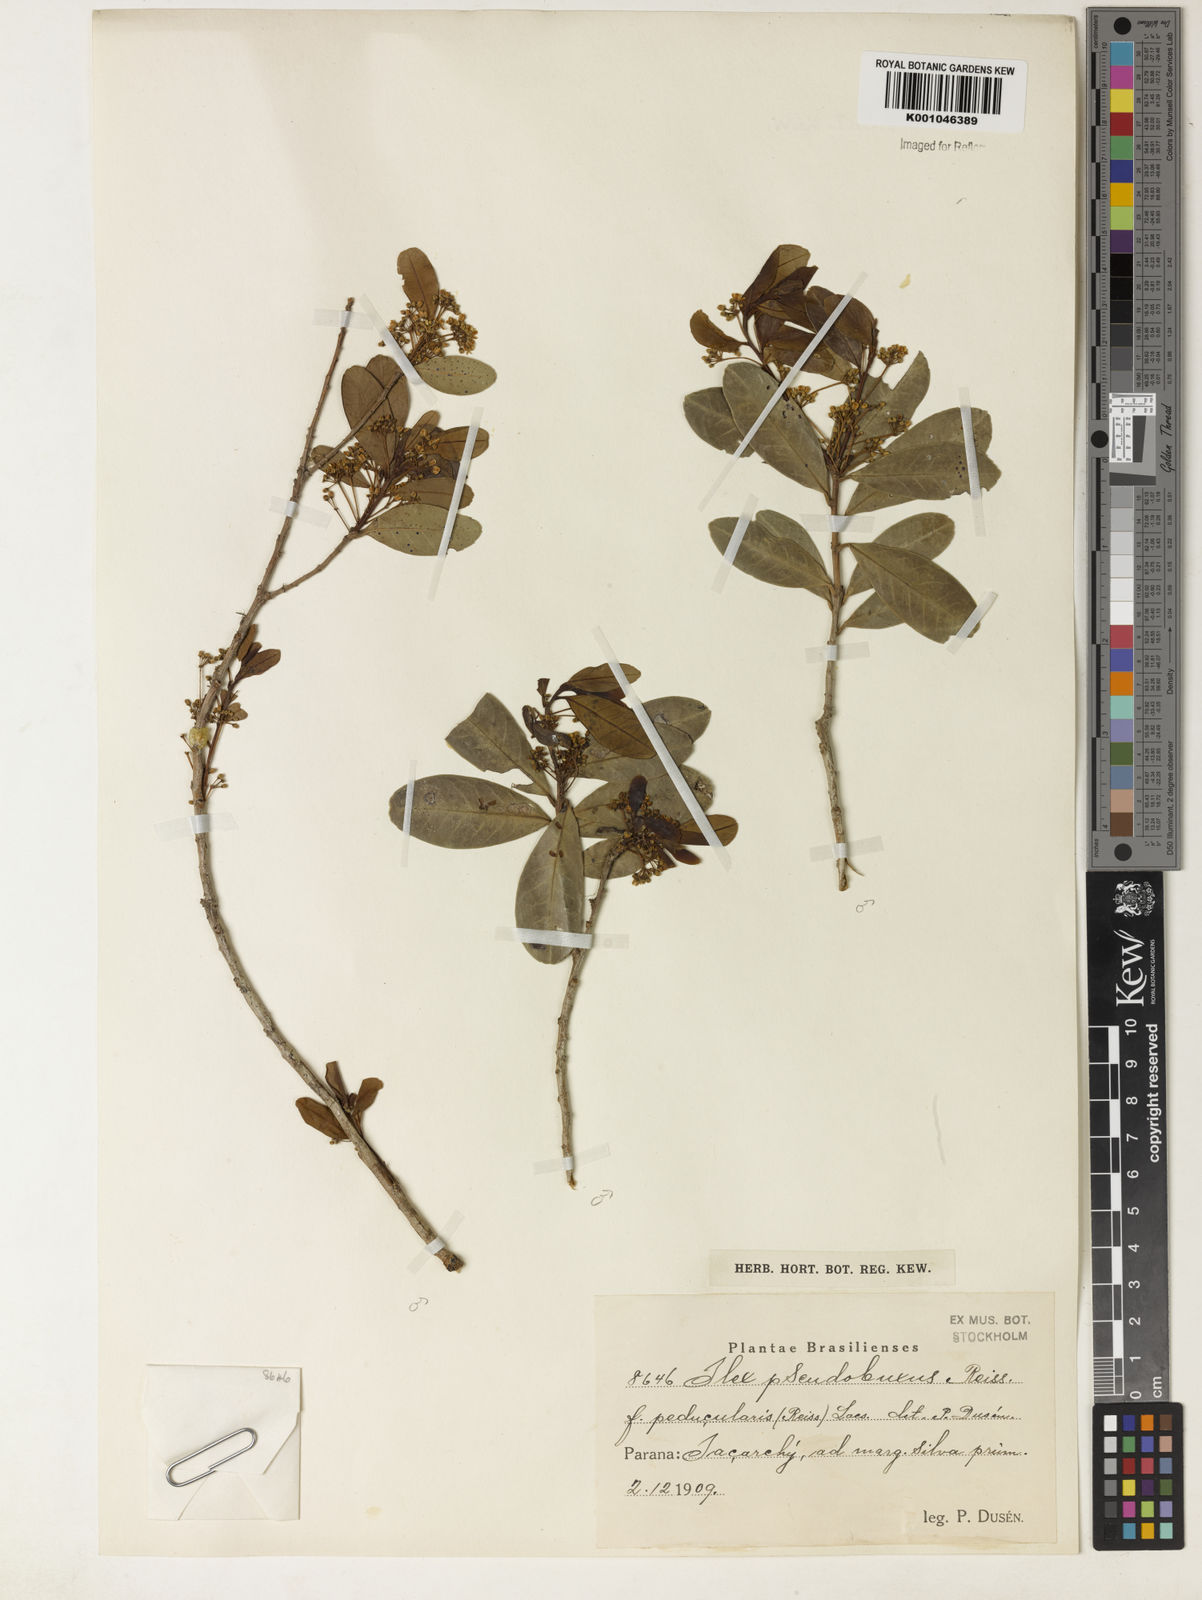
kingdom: Plantae
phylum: Tracheophyta
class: Magnoliopsida
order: Aquifoliales
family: Aquifoliaceae
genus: Ilex
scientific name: Ilex pseudobuxus
